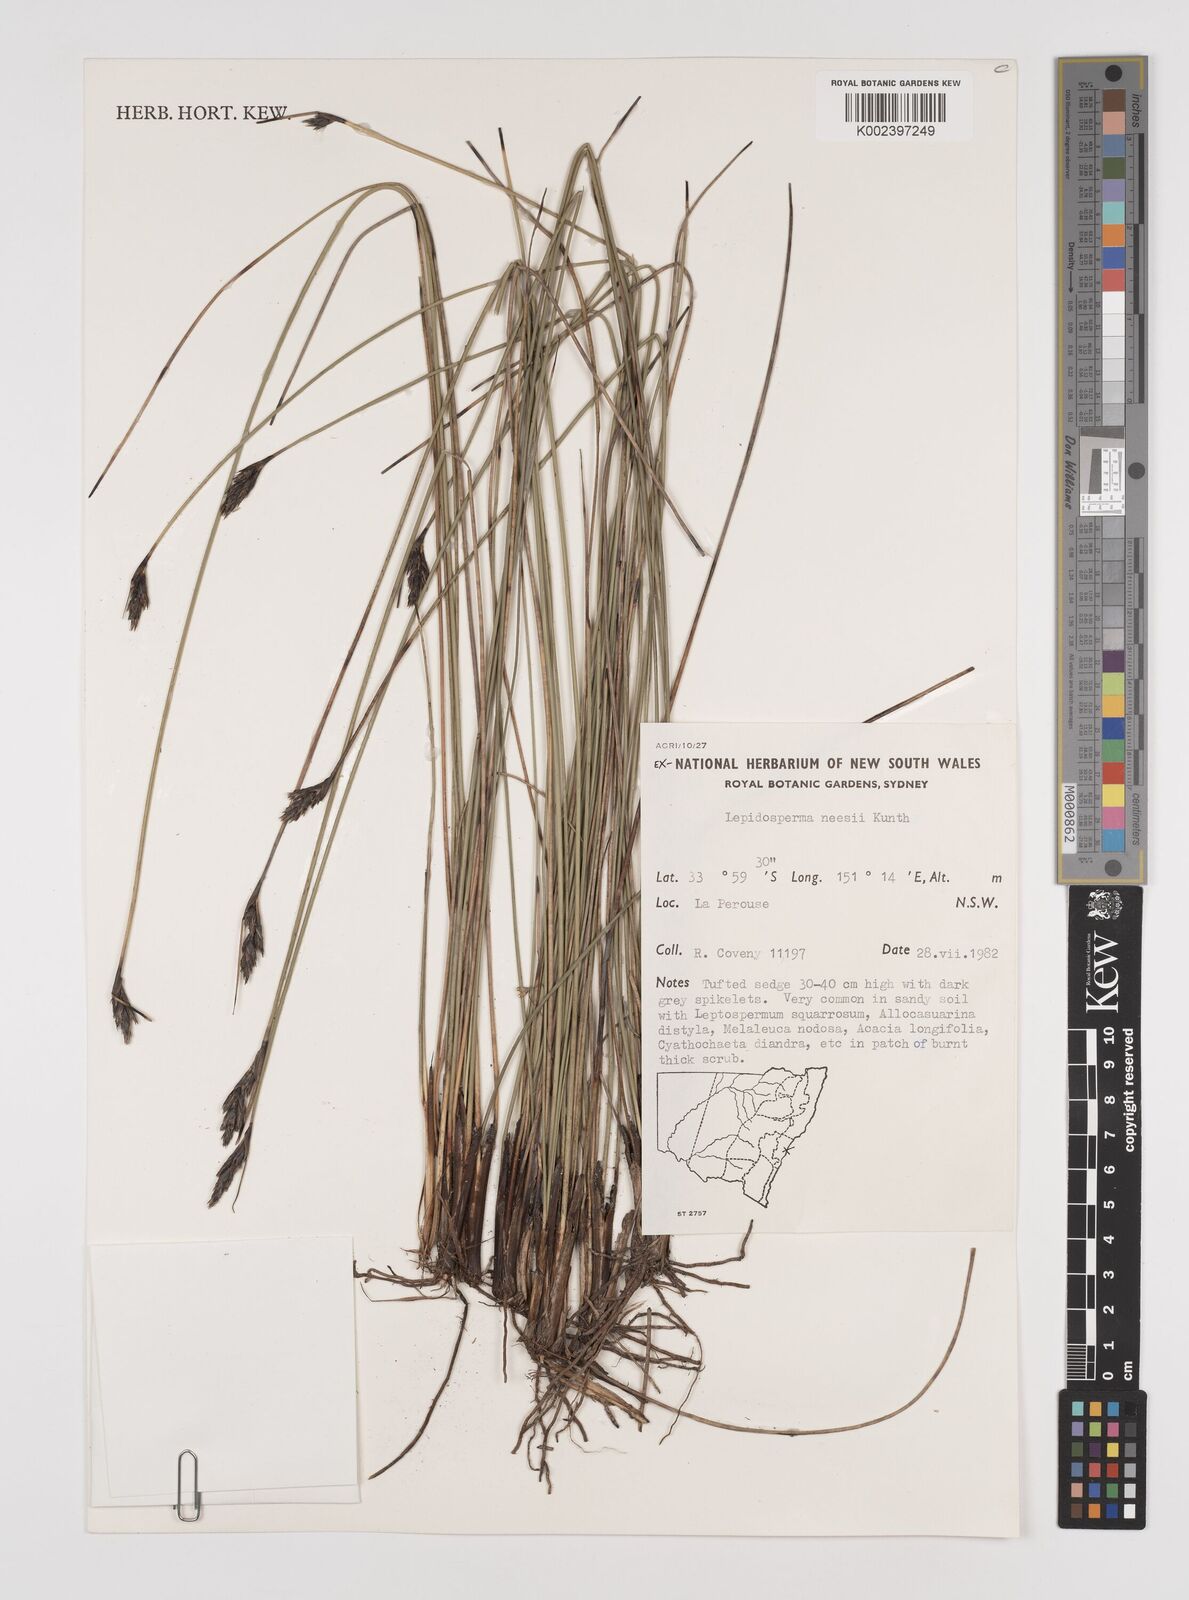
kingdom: Plantae
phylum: Tracheophyta
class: Liliopsida
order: Poales
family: Cyperaceae
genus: Lepidosperma
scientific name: Lepidosperma neesii
